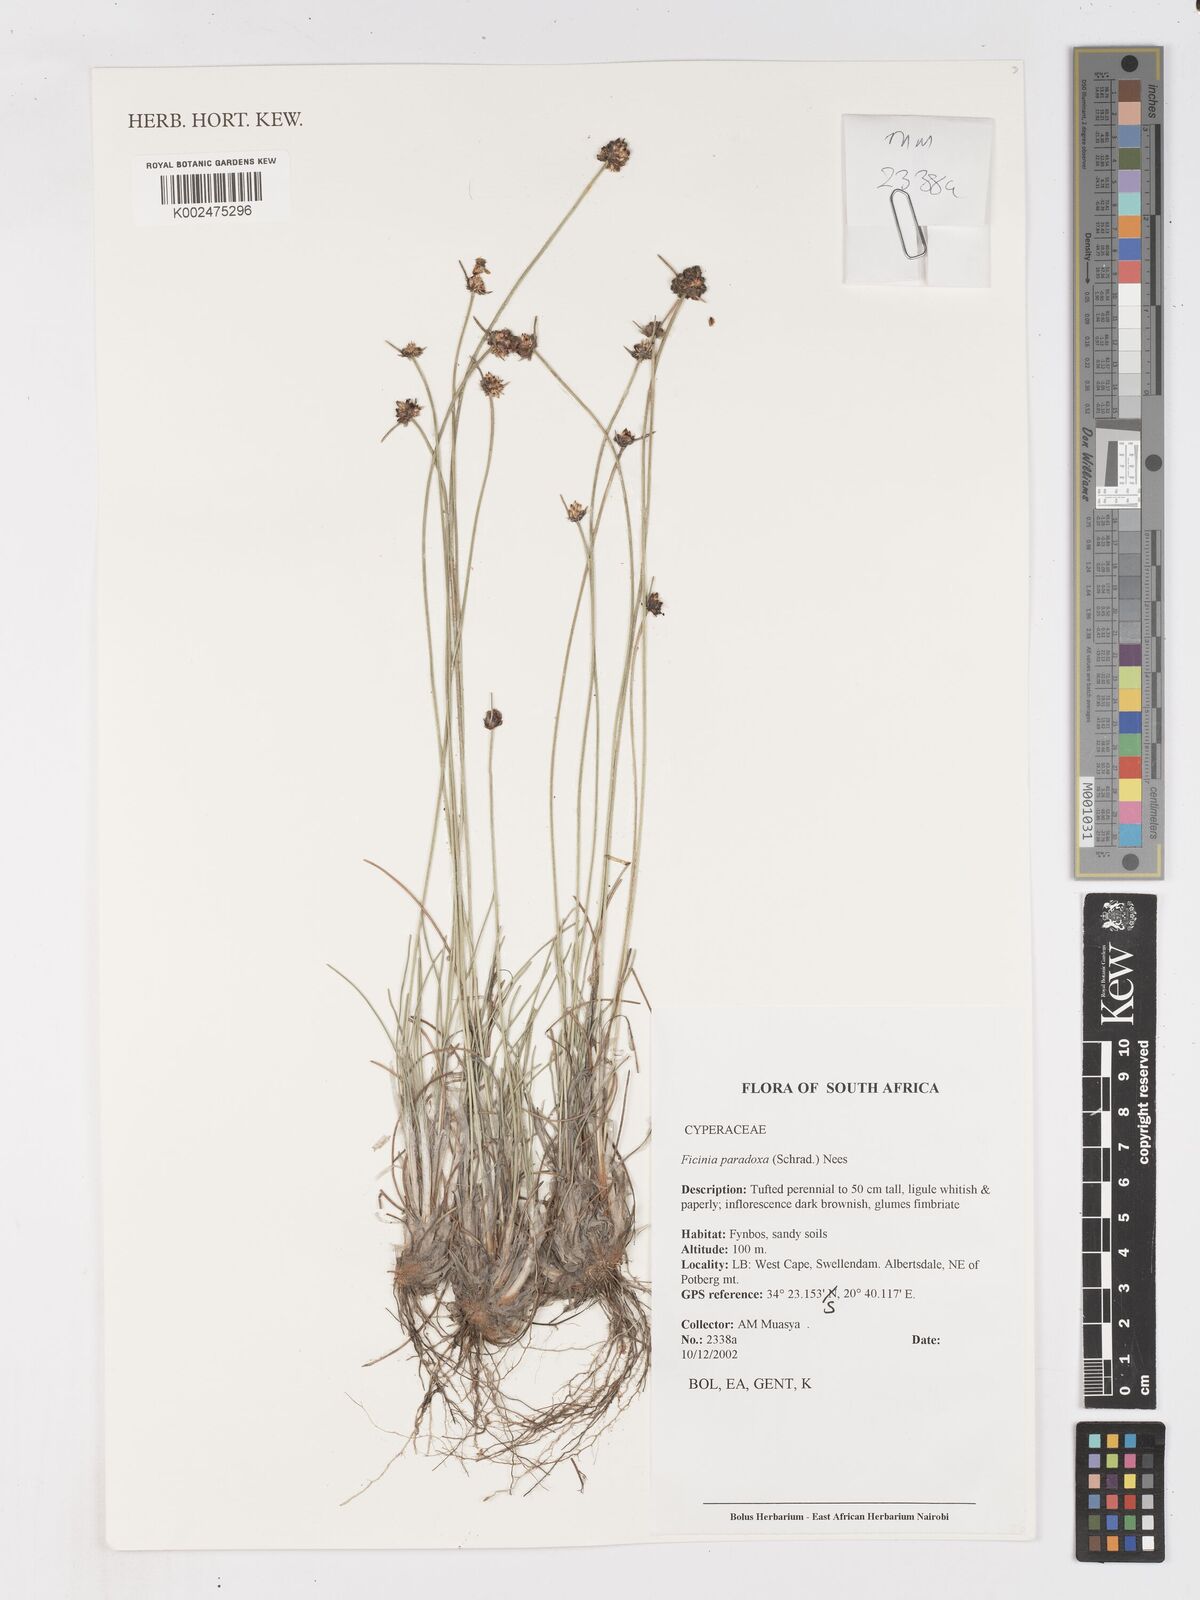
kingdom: Plantae
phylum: Tracheophyta
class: Liliopsida
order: Poales
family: Cyperaceae
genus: Ficinia
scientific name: Ficinia paradoxa
